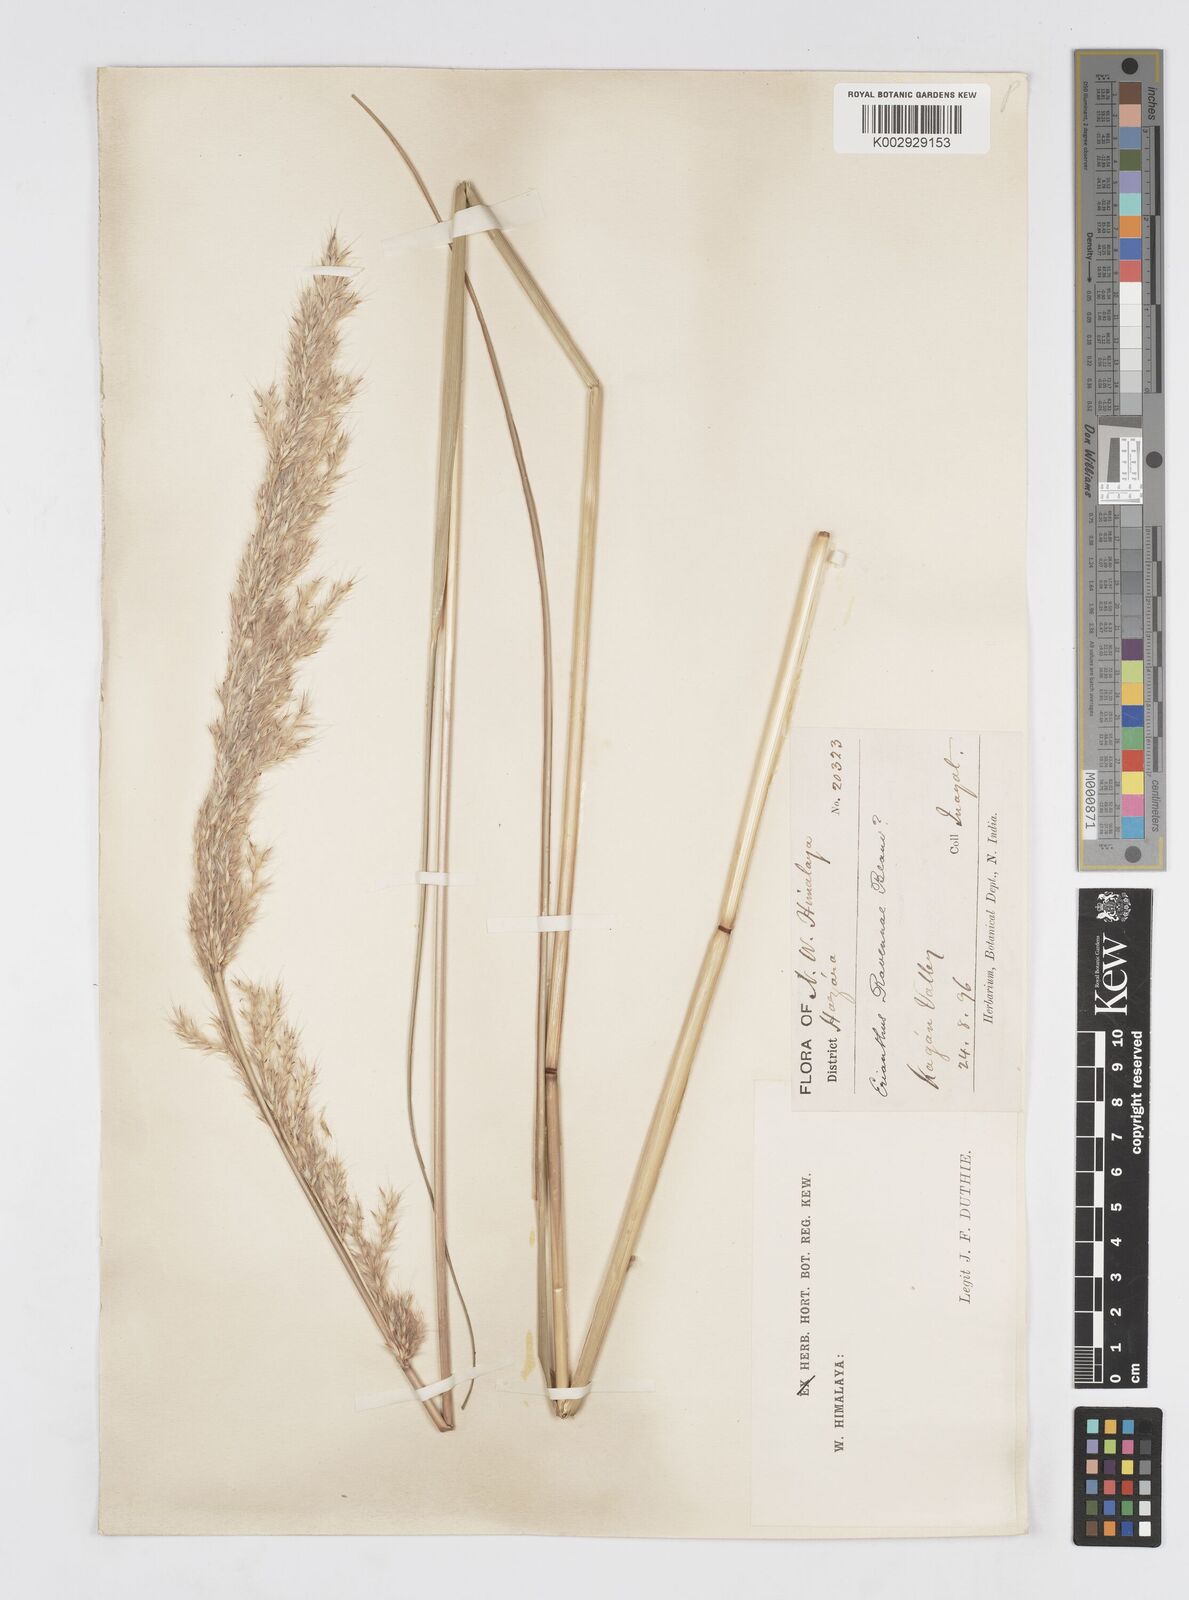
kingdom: Plantae
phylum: Tracheophyta
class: Liliopsida
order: Poales
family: Poaceae
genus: Saccharum
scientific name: Saccharum
